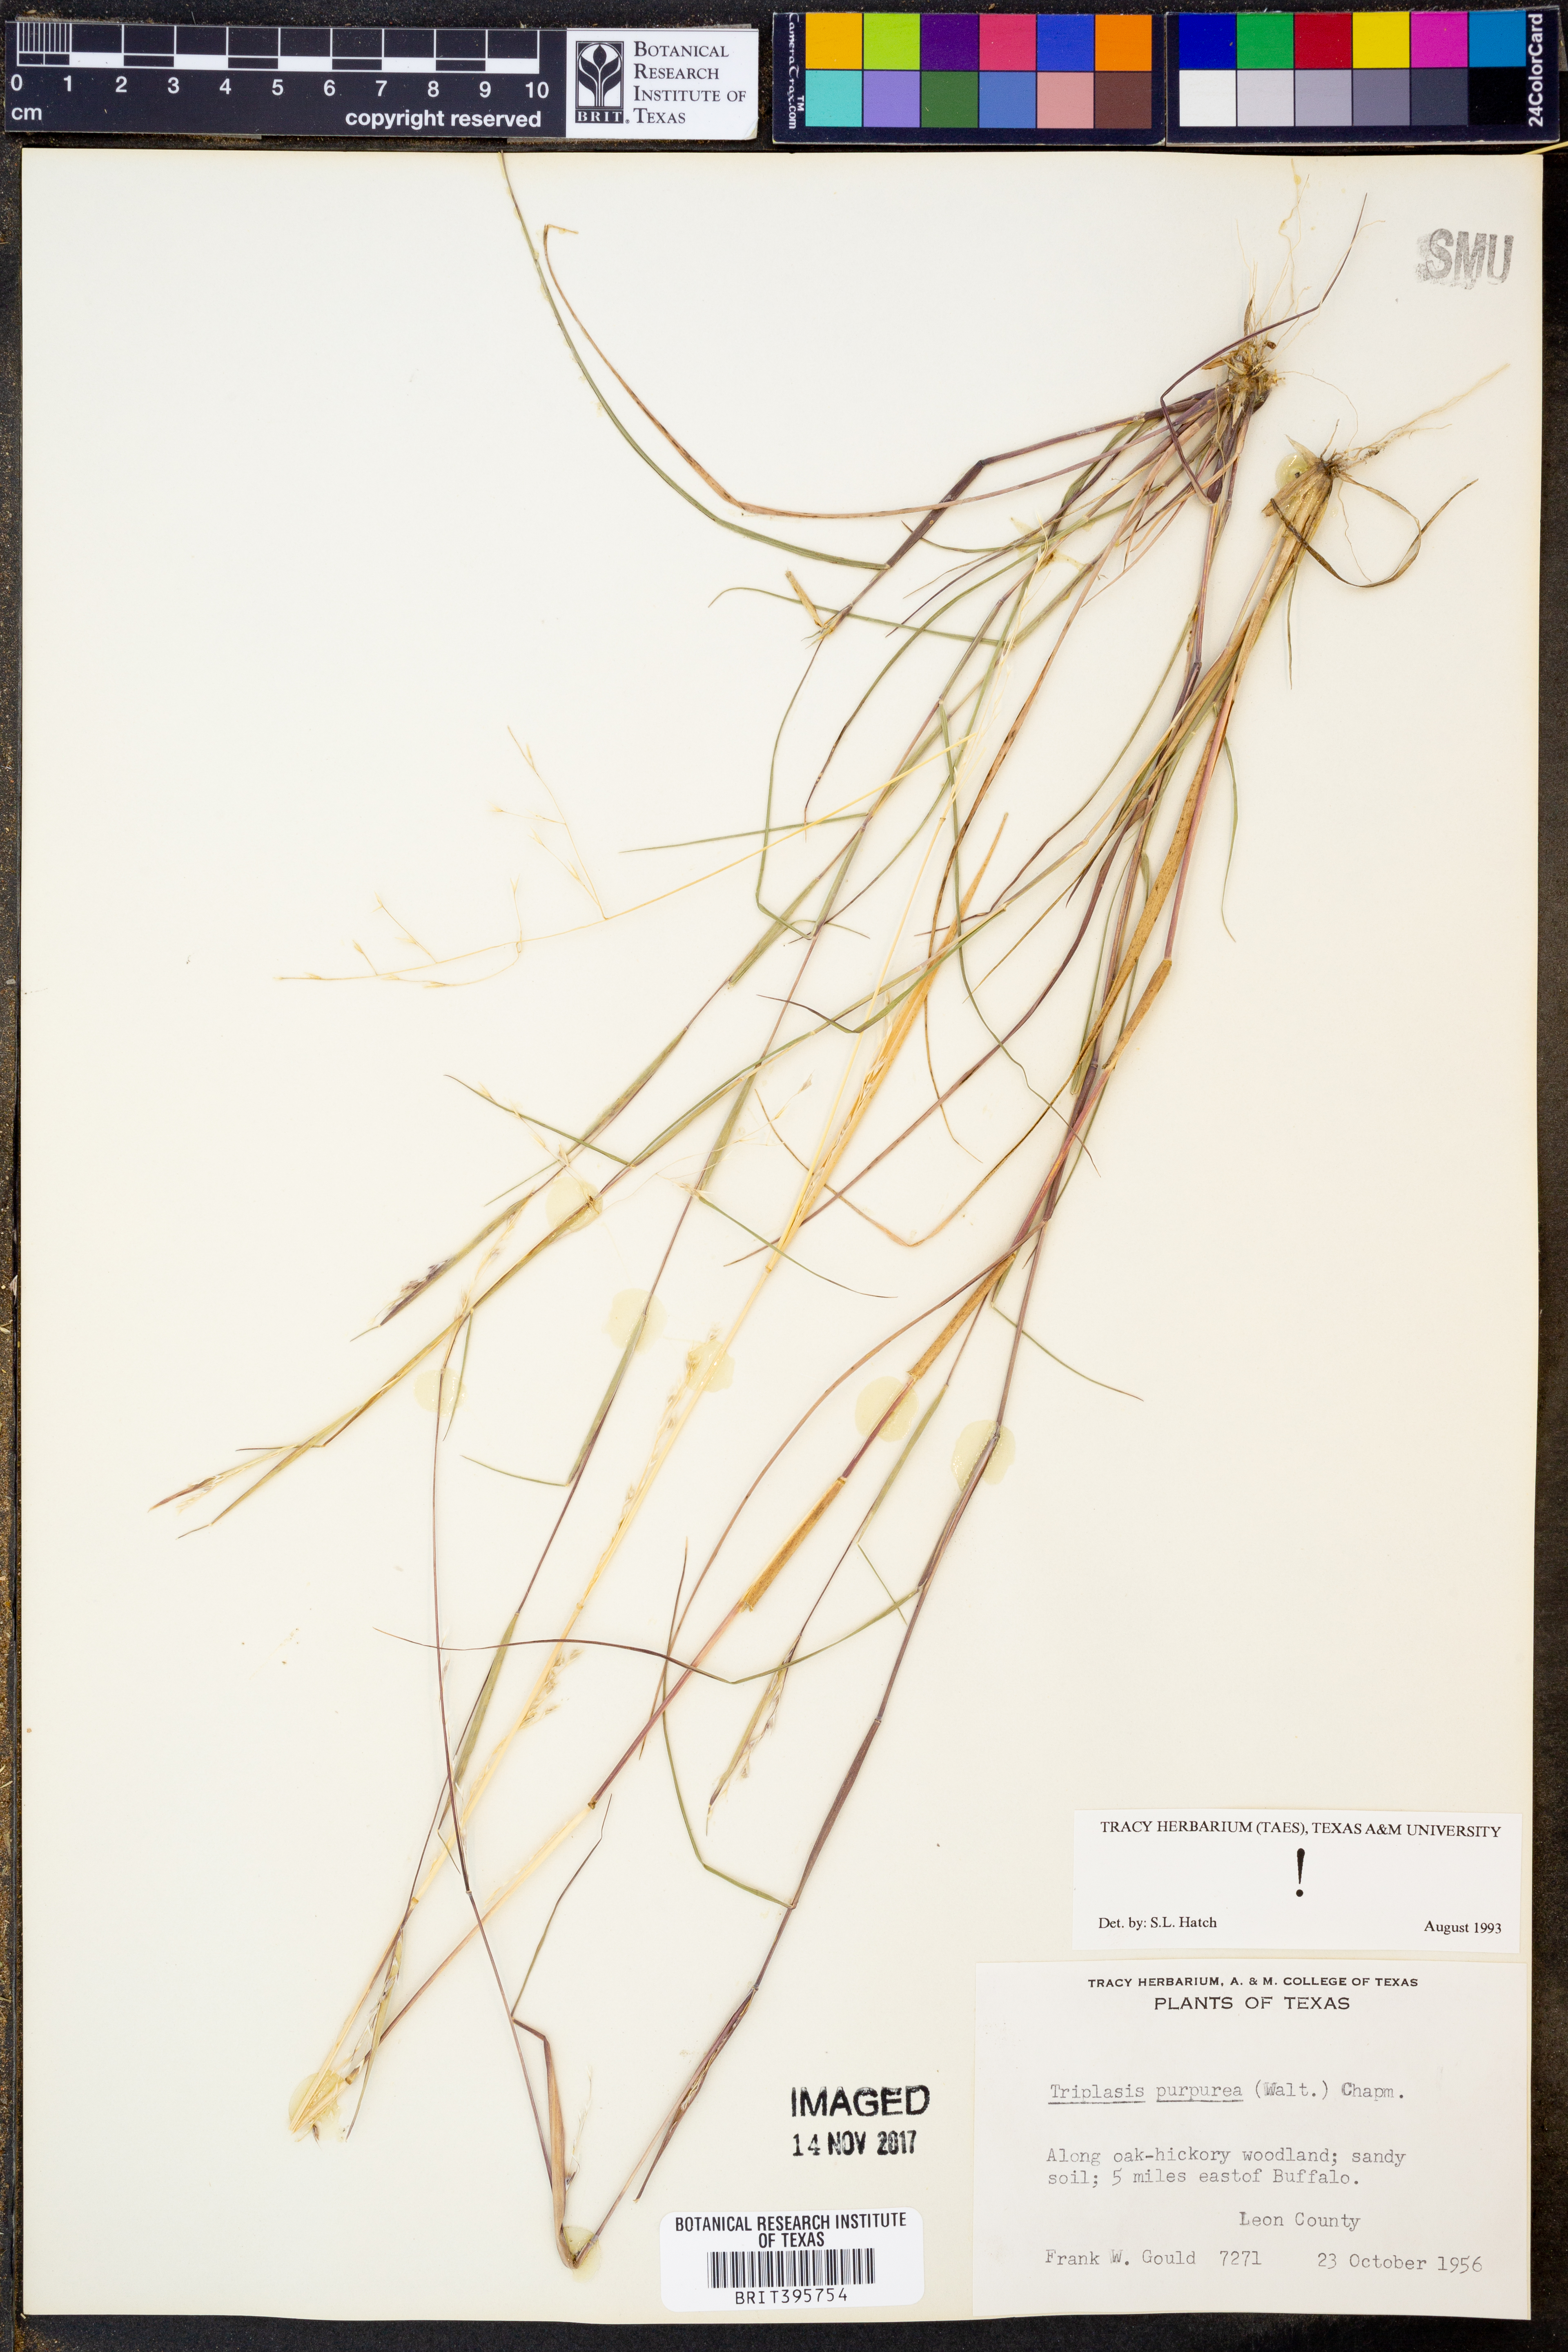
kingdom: Plantae
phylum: Tracheophyta
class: Liliopsida
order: Poales
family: Poaceae
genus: Triplasis
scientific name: Triplasis purpurea
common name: Purple sand grass
